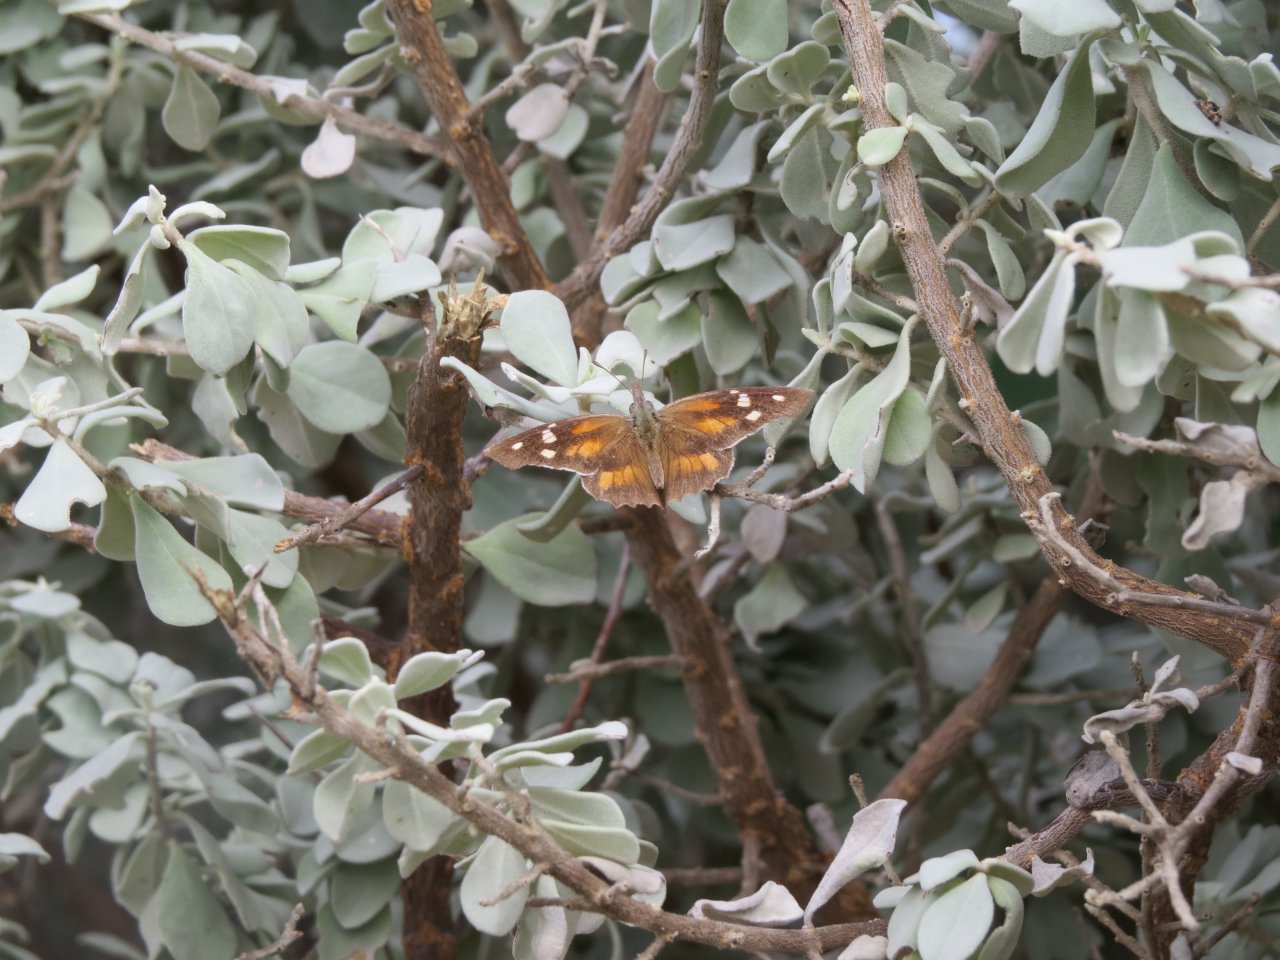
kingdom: Animalia
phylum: Arthropoda
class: Insecta
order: Lepidoptera
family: Nymphalidae
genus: Libytheana
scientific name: Libytheana carinenta
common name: American Snout
